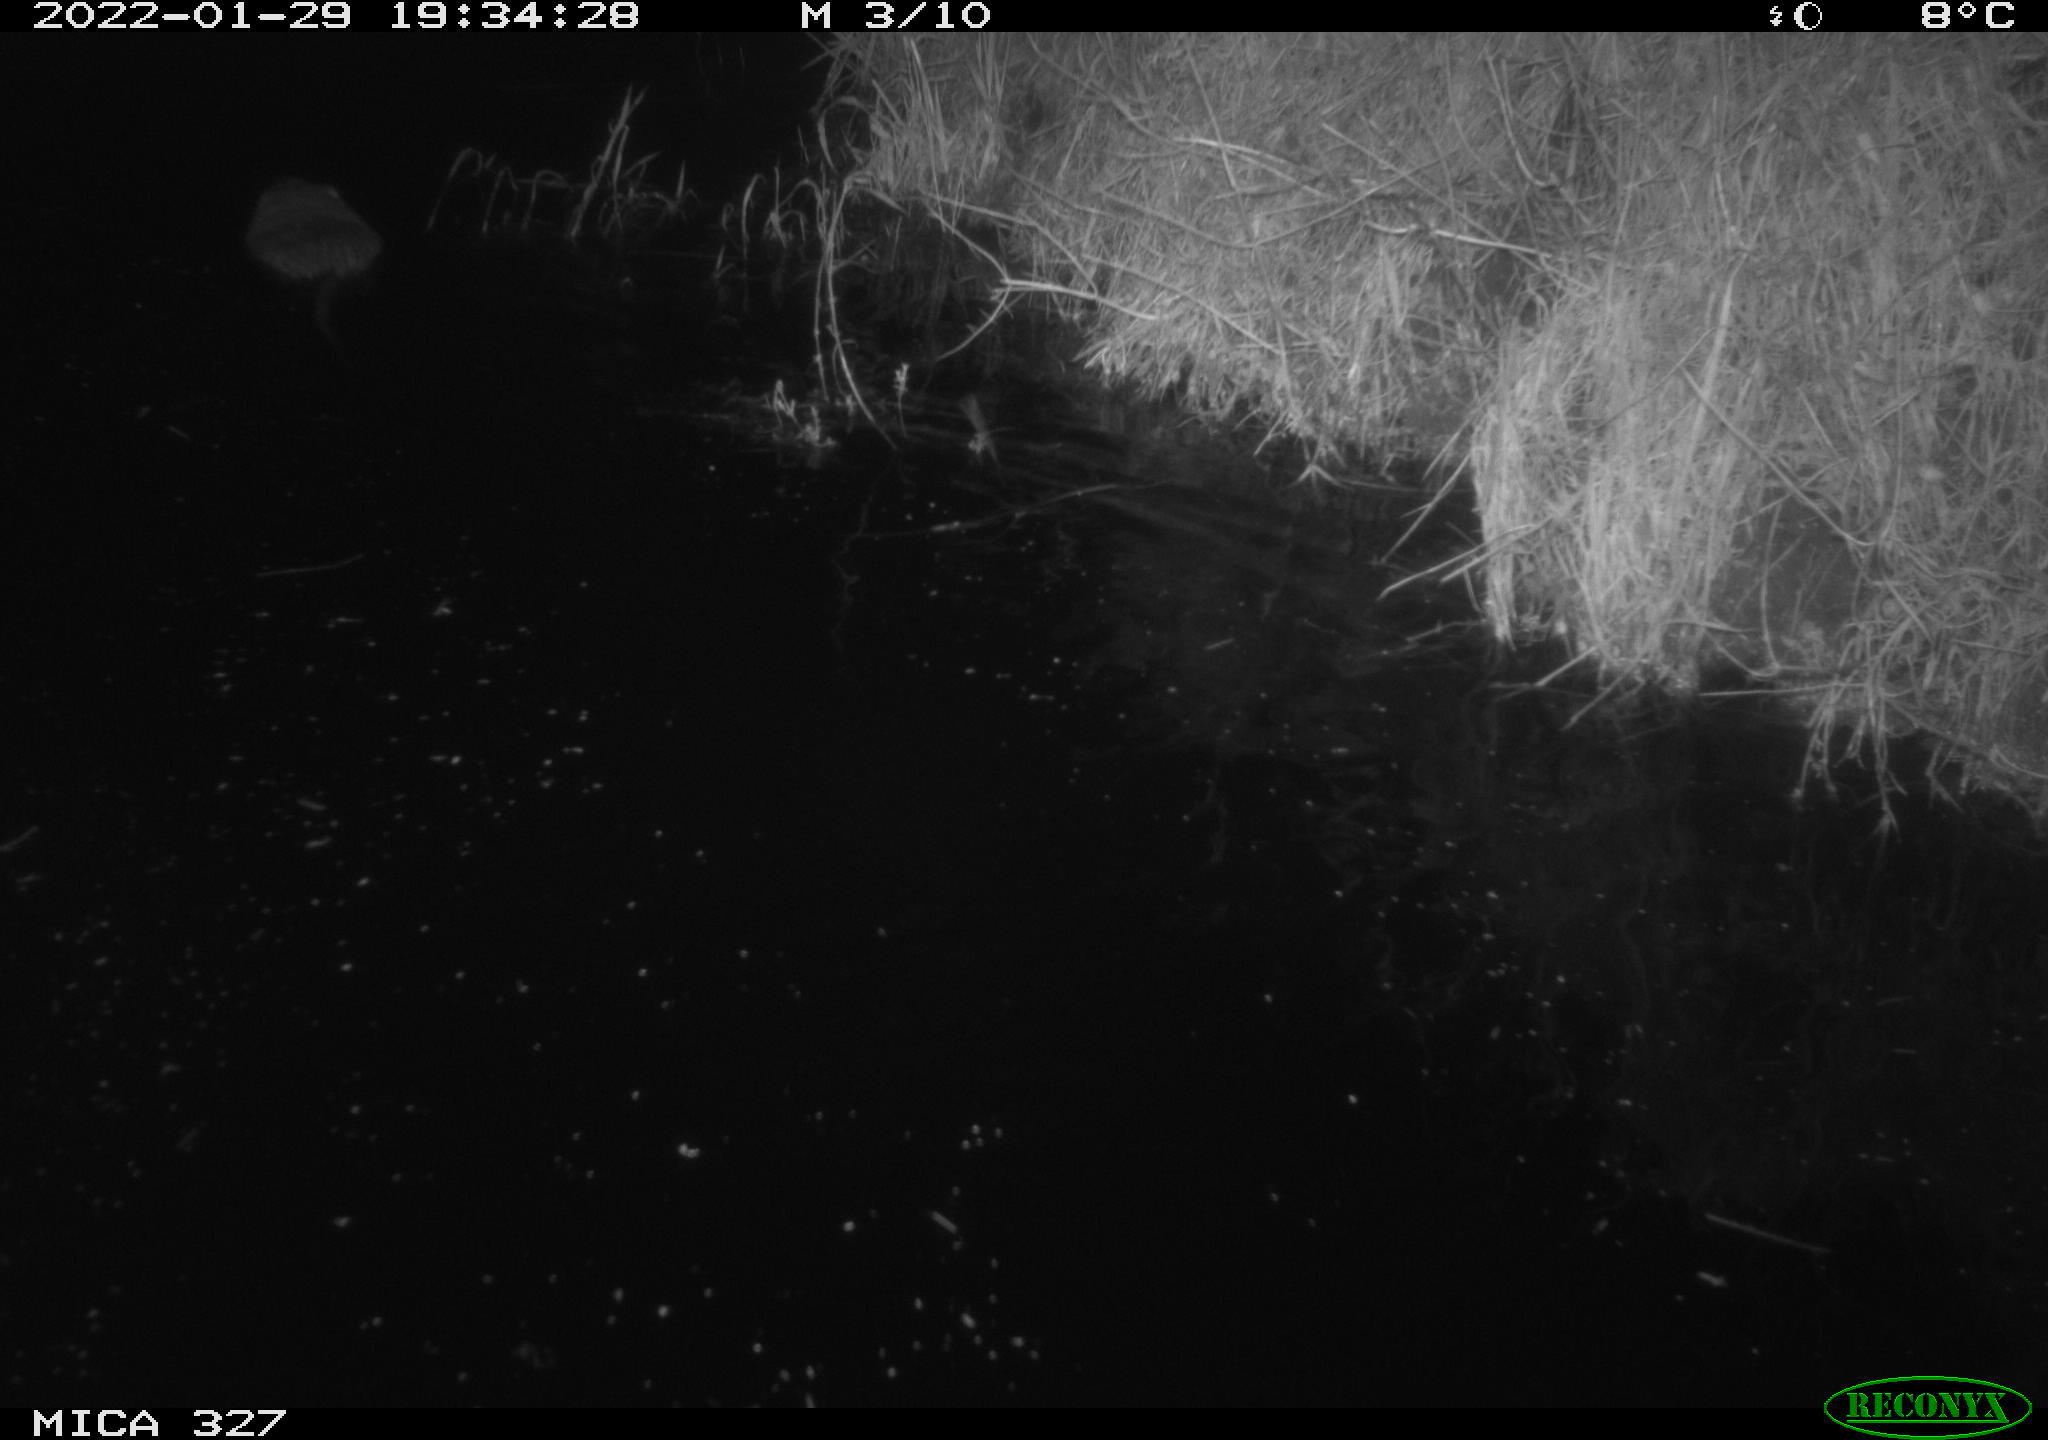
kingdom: Animalia
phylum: Chordata
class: Mammalia
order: Rodentia
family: Cricetidae
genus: Ondatra
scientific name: Ondatra zibethicus
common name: Muskrat
